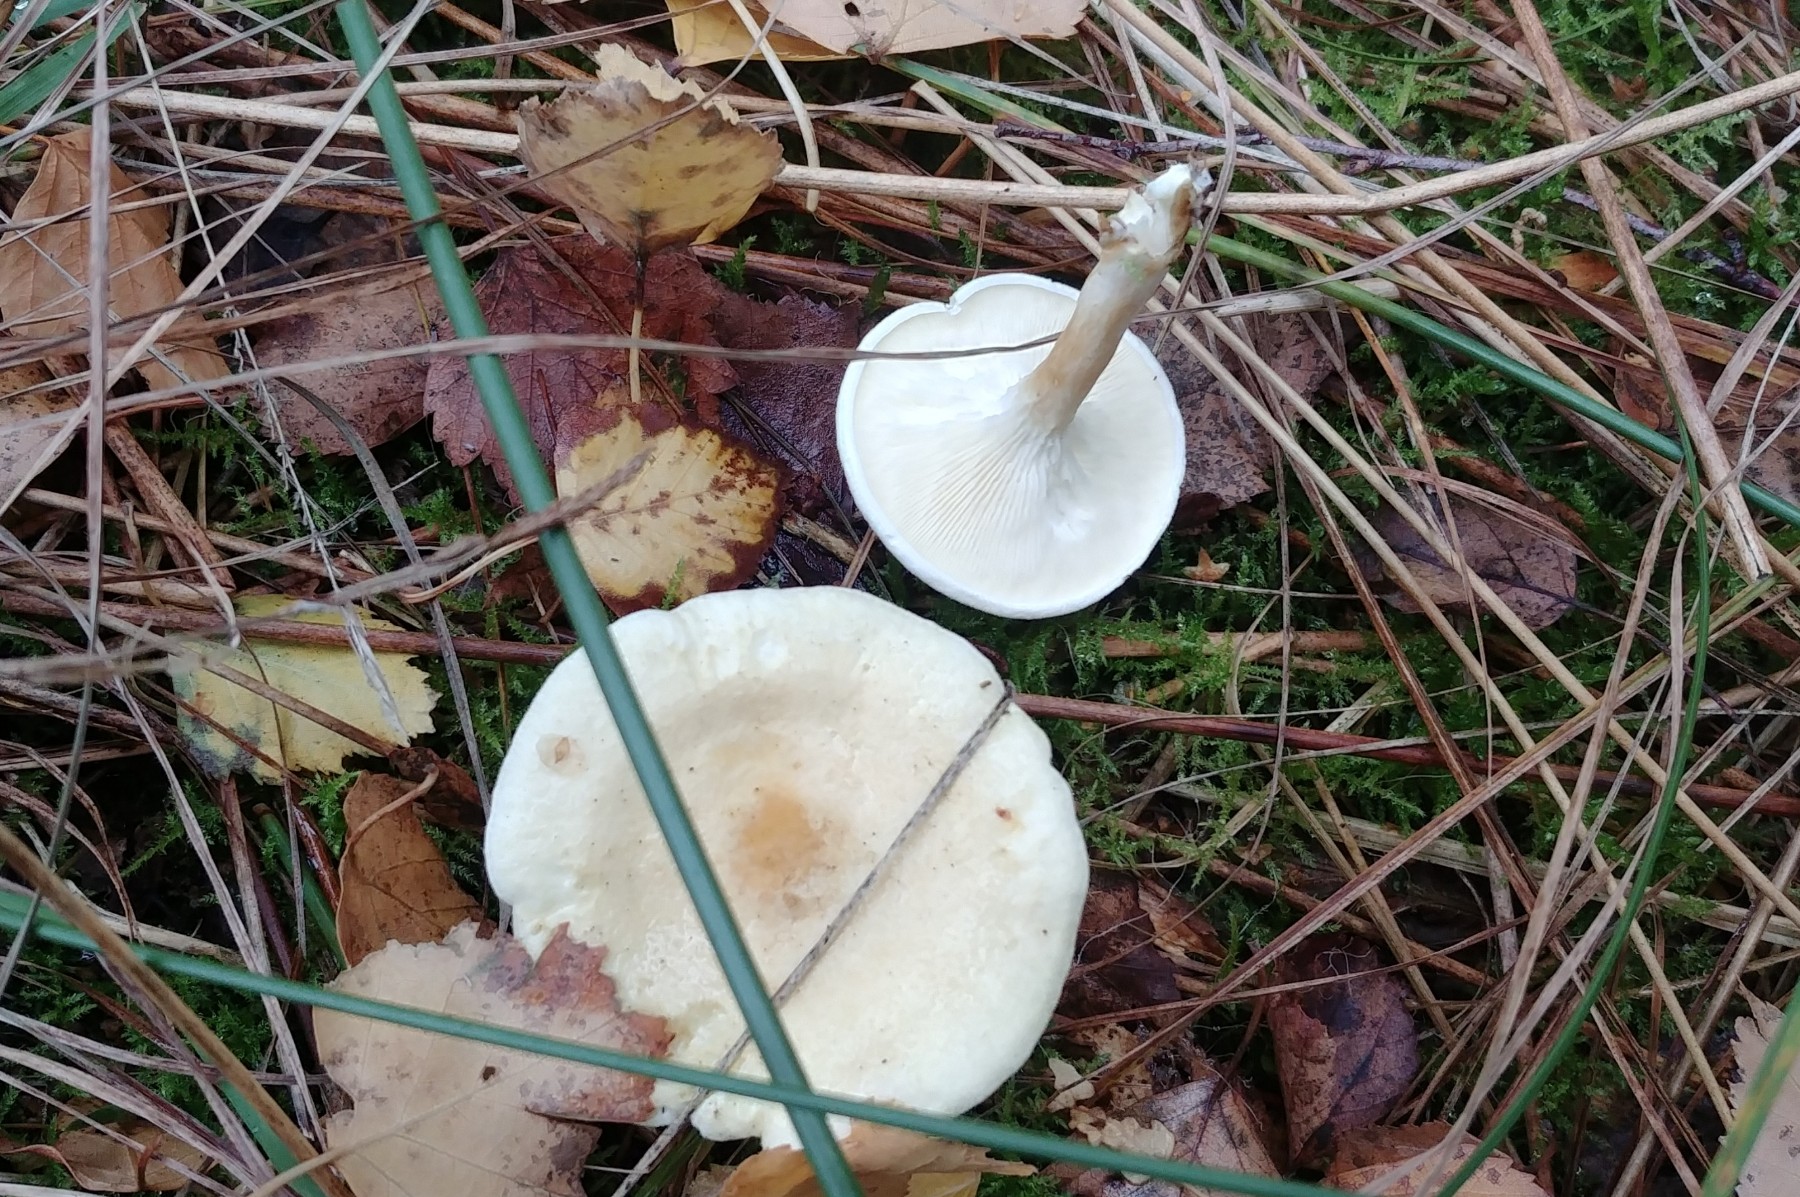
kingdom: Fungi
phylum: Basidiomycota
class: Agaricomycetes
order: Boletales
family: Hygrophoropsidaceae
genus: Hygrophoropsis
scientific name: Hygrophoropsis pallida
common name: bleg orangekantarel
